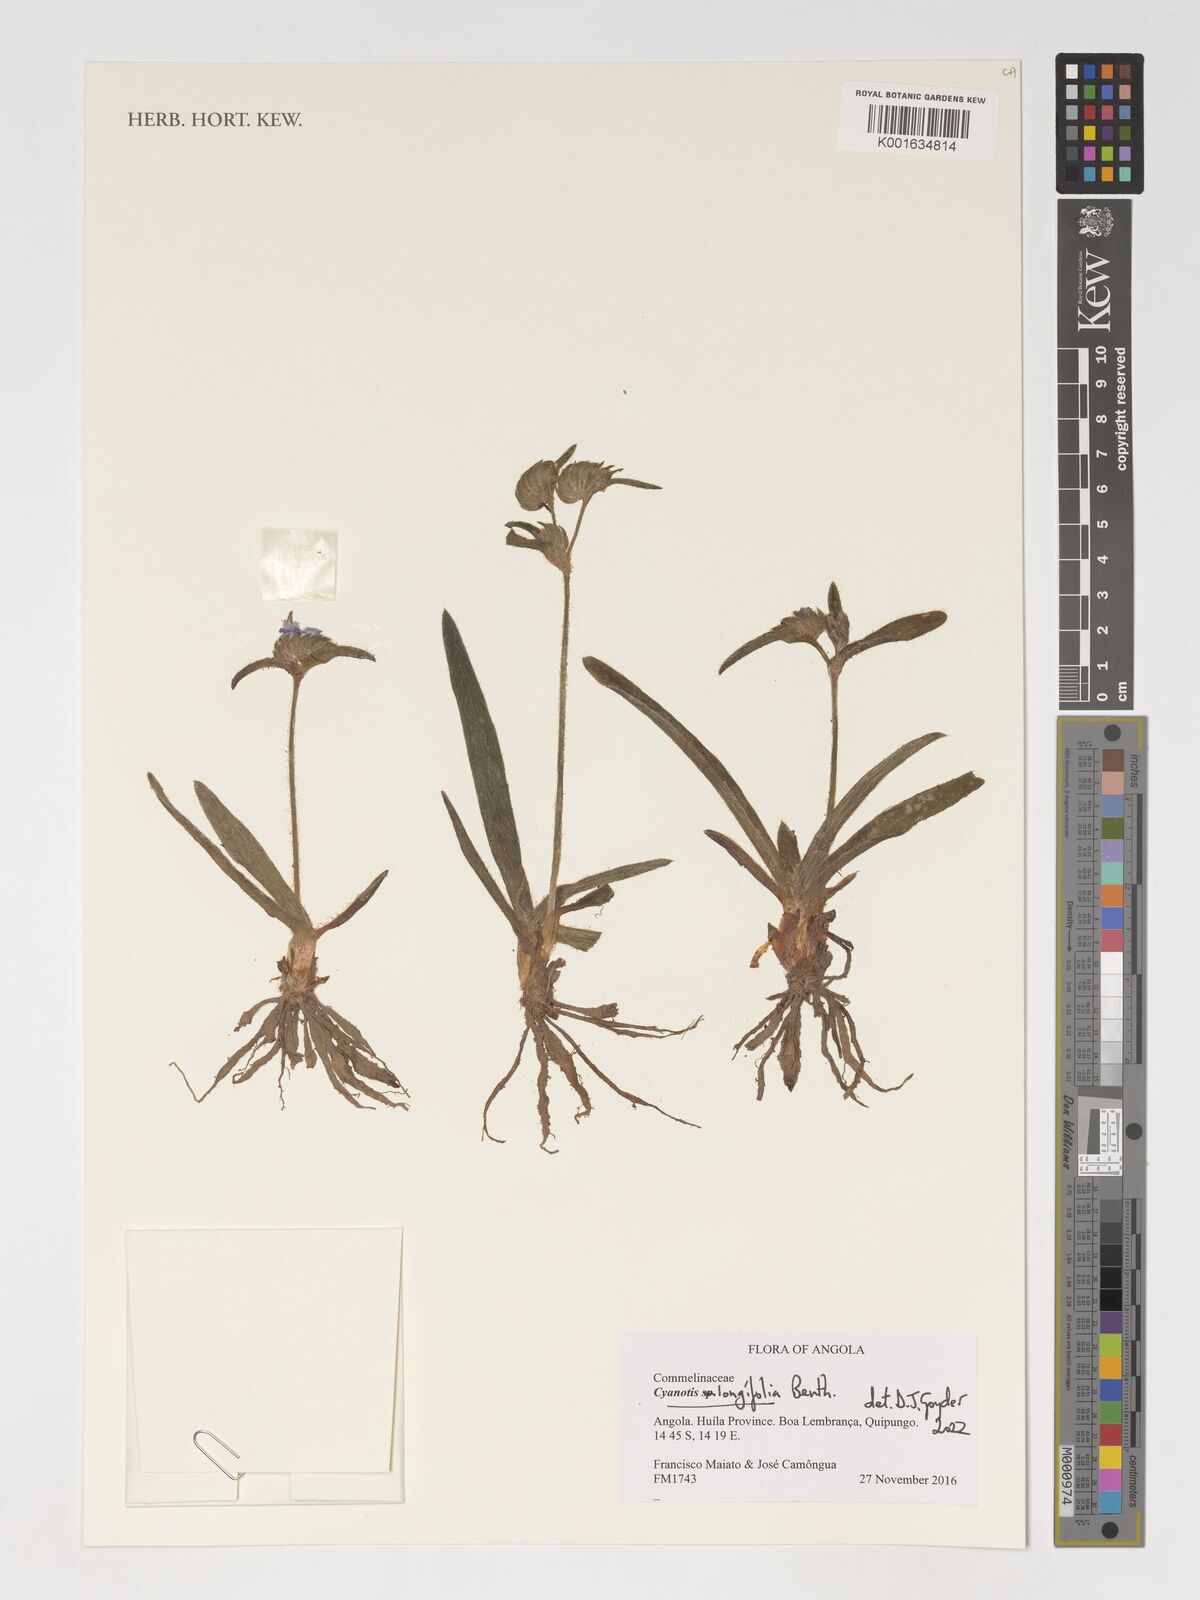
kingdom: Plantae
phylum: Tracheophyta
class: Liliopsida
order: Commelinales
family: Commelinaceae
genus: Cyanotis
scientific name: Cyanotis longifolia
